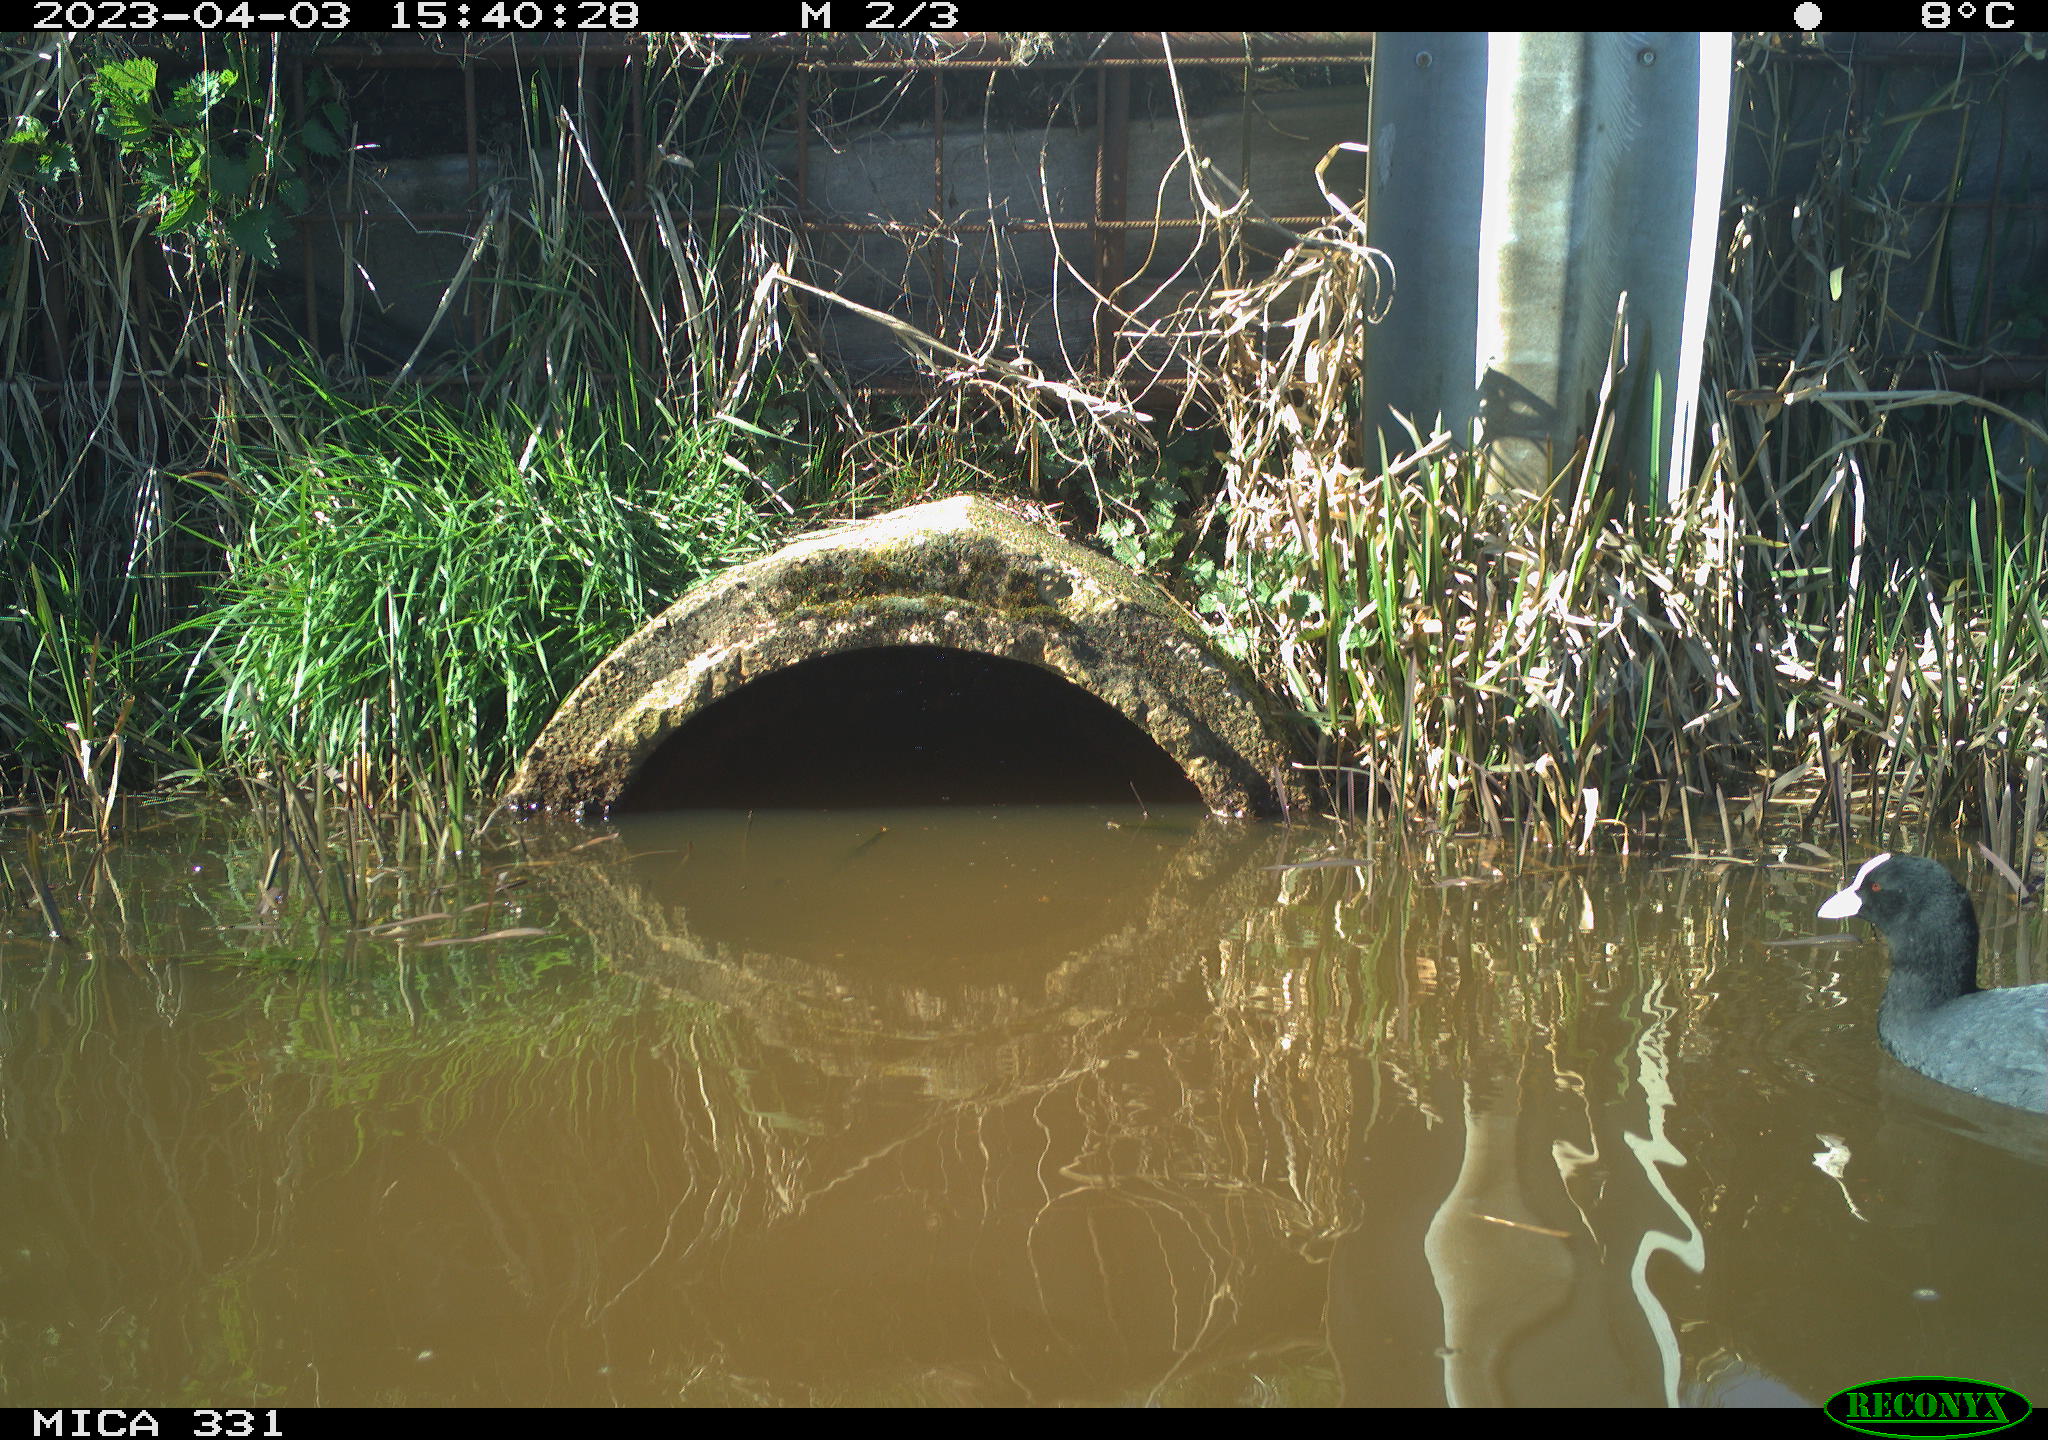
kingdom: Animalia
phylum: Chordata
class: Aves
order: Gruiformes
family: Rallidae
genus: Fulica
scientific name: Fulica atra
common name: Eurasian coot
